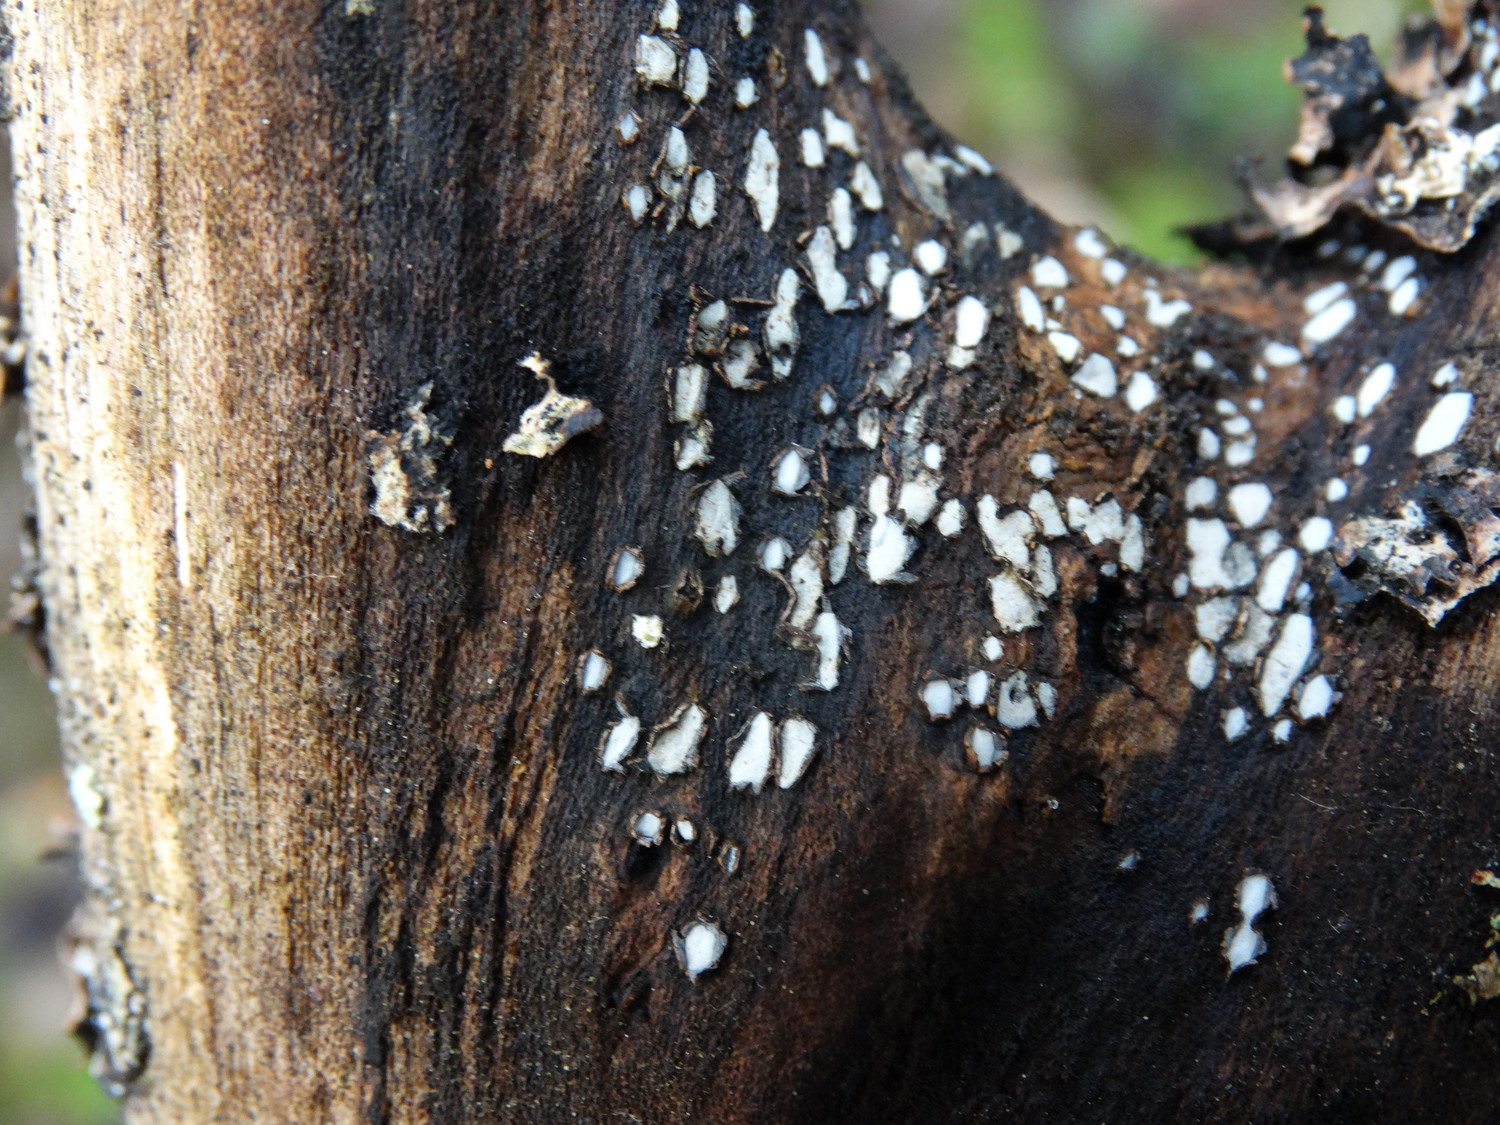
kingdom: Fungi
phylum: Ascomycota
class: Leotiomycetes
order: Chaetomellales
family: Marthamycetaceae
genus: Propolis
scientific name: Propolis farinosa
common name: almindelig vedsprængerskive
